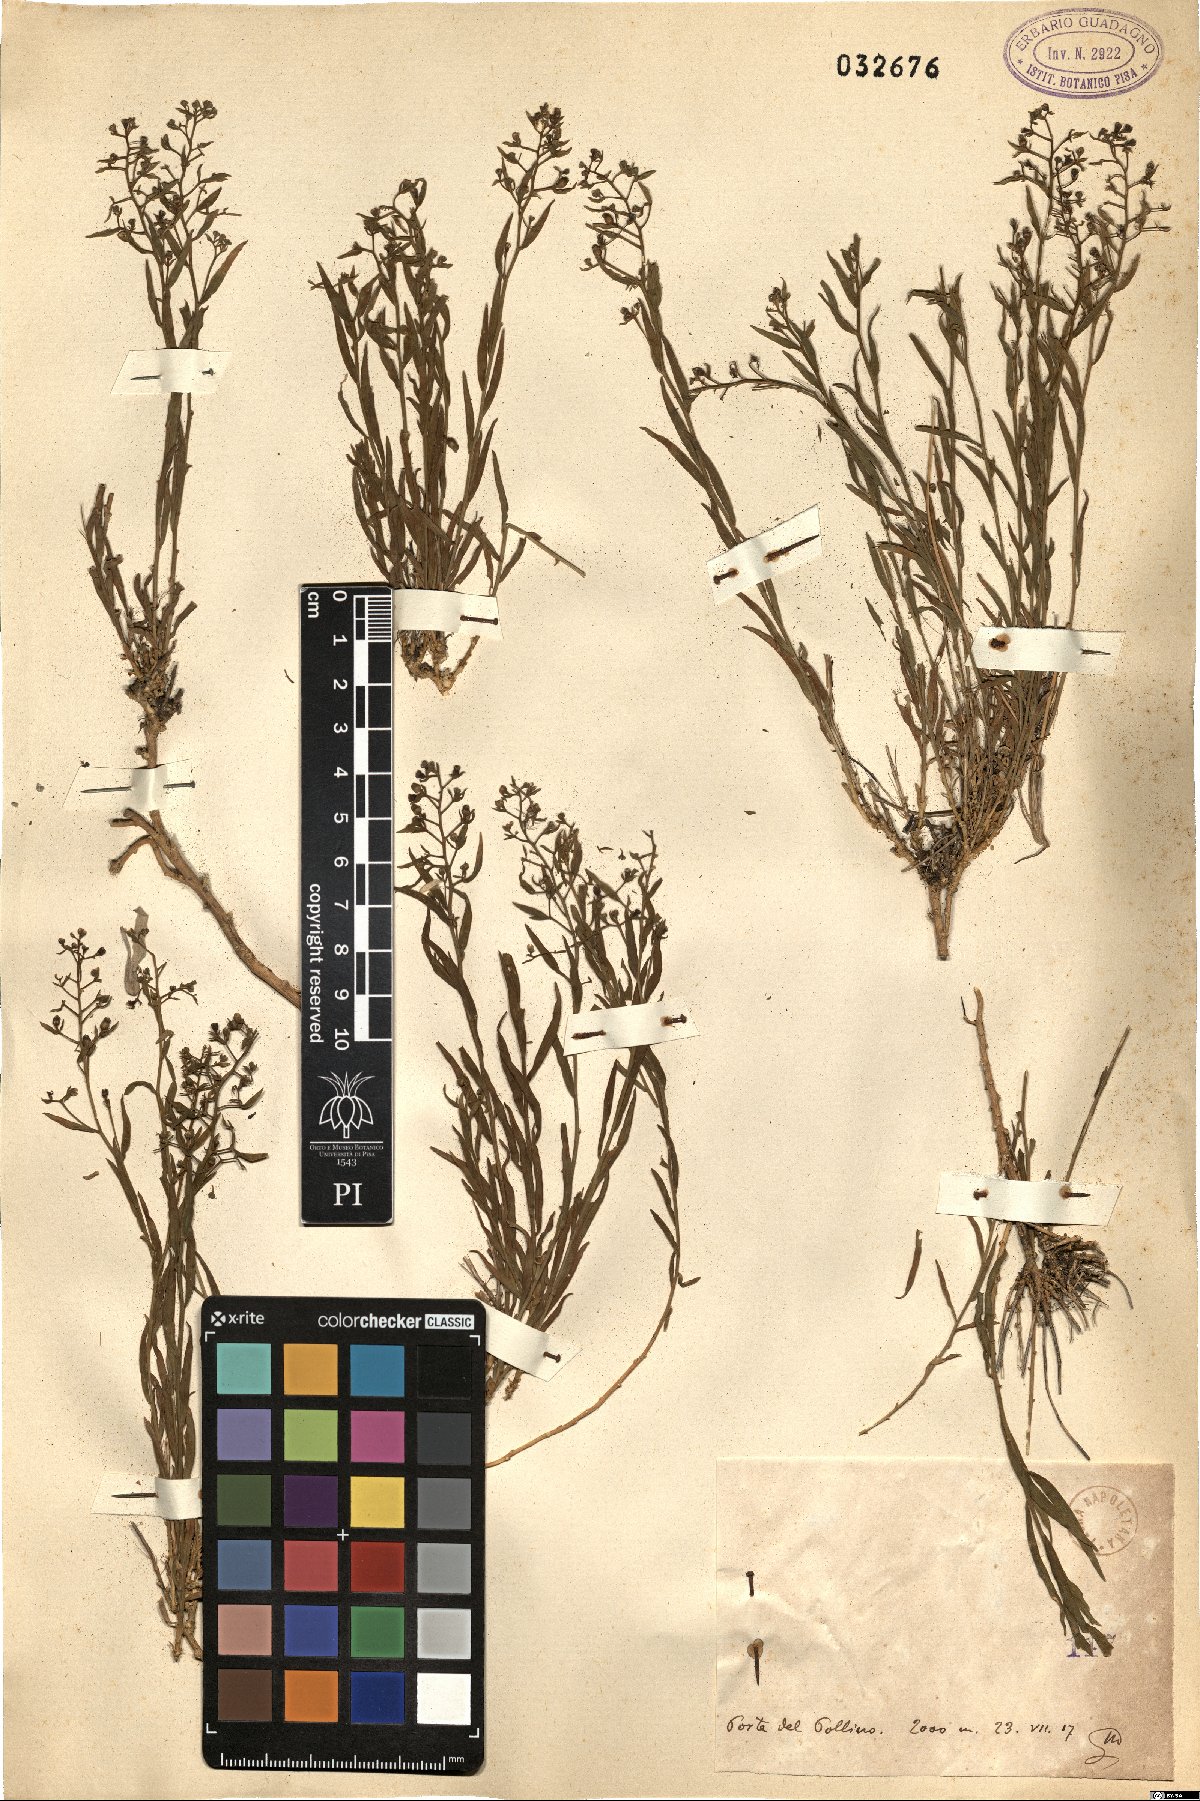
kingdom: Plantae
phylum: Tracheophyta
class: Magnoliopsida
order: Santalales
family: Thesiaceae
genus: Thesium
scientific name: Thesium
